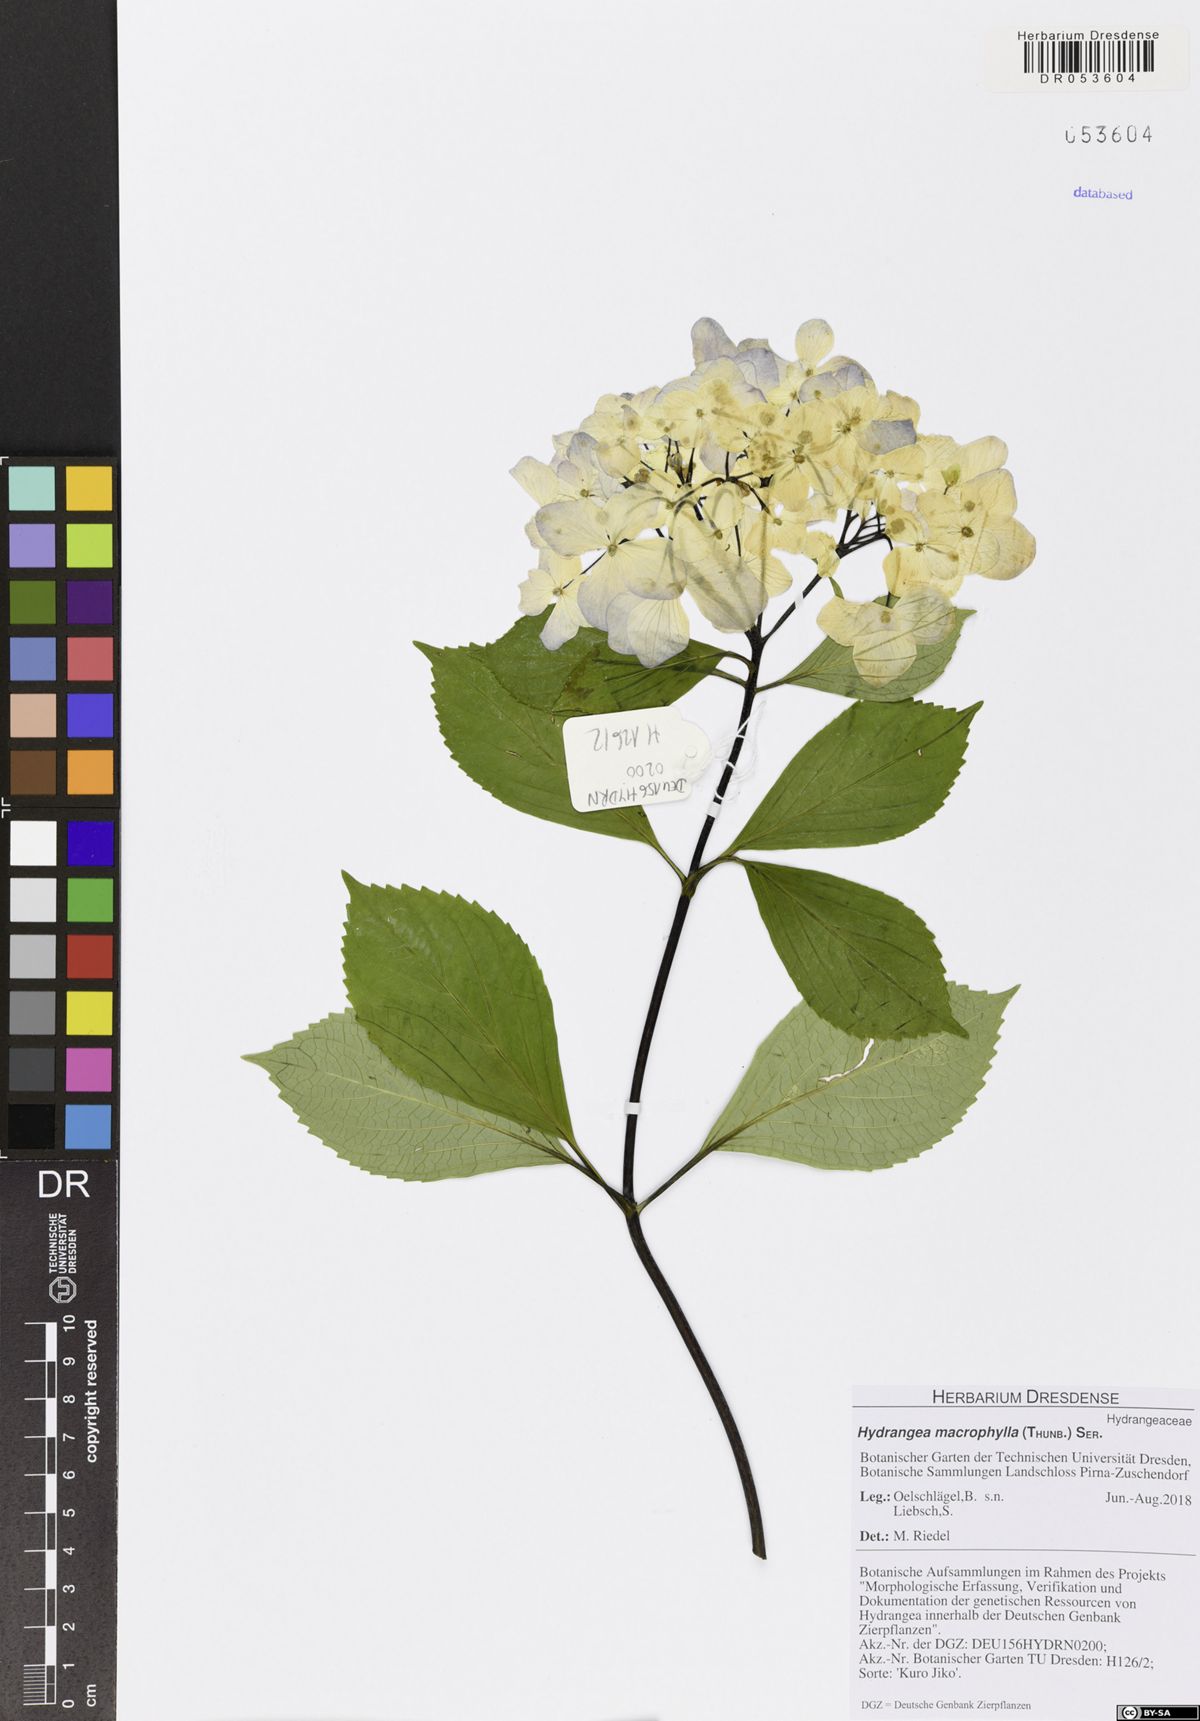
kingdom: Plantae
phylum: Tracheophyta
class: Magnoliopsida
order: Cornales
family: Hydrangeaceae
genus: Hydrangea
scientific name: Hydrangea macrophylla
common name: Hydrangea
